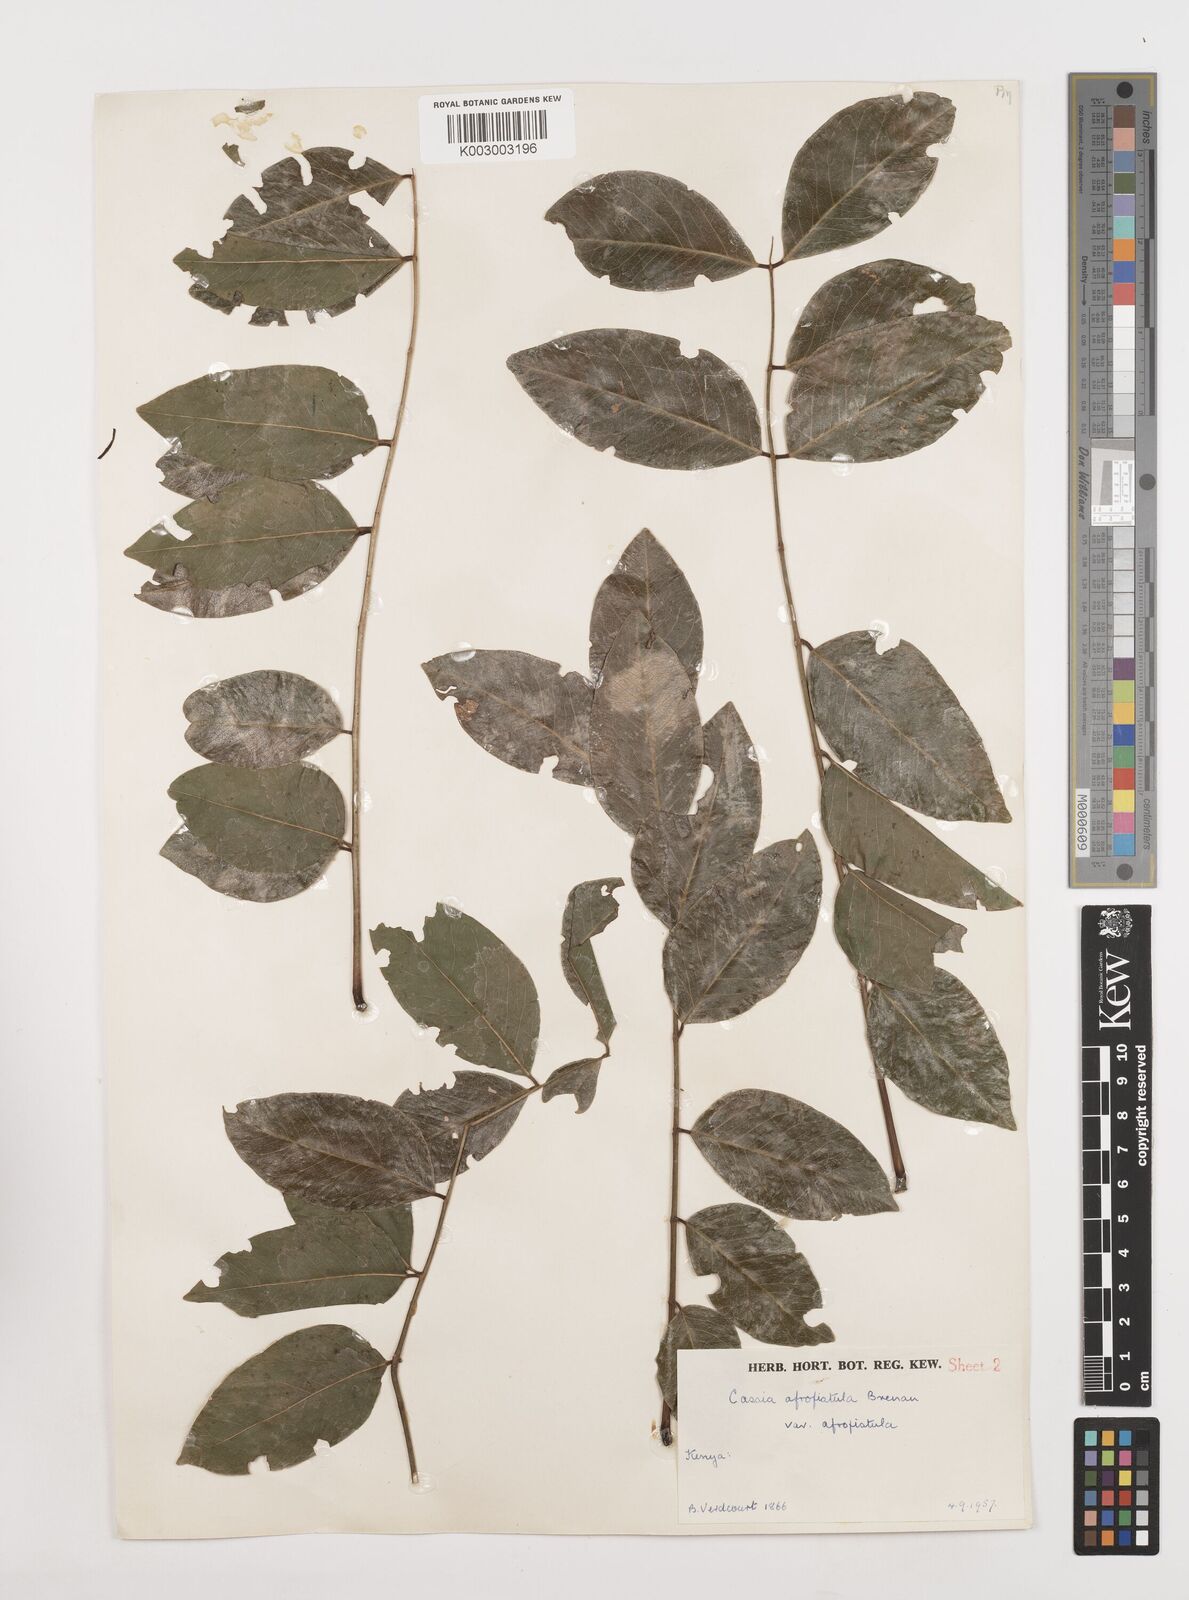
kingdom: Plantae
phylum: Tracheophyta
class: Magnoliopsida
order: Fabales
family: Fabaceae
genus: Cassia
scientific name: Cassia afrofistula
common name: Kenyan shower
